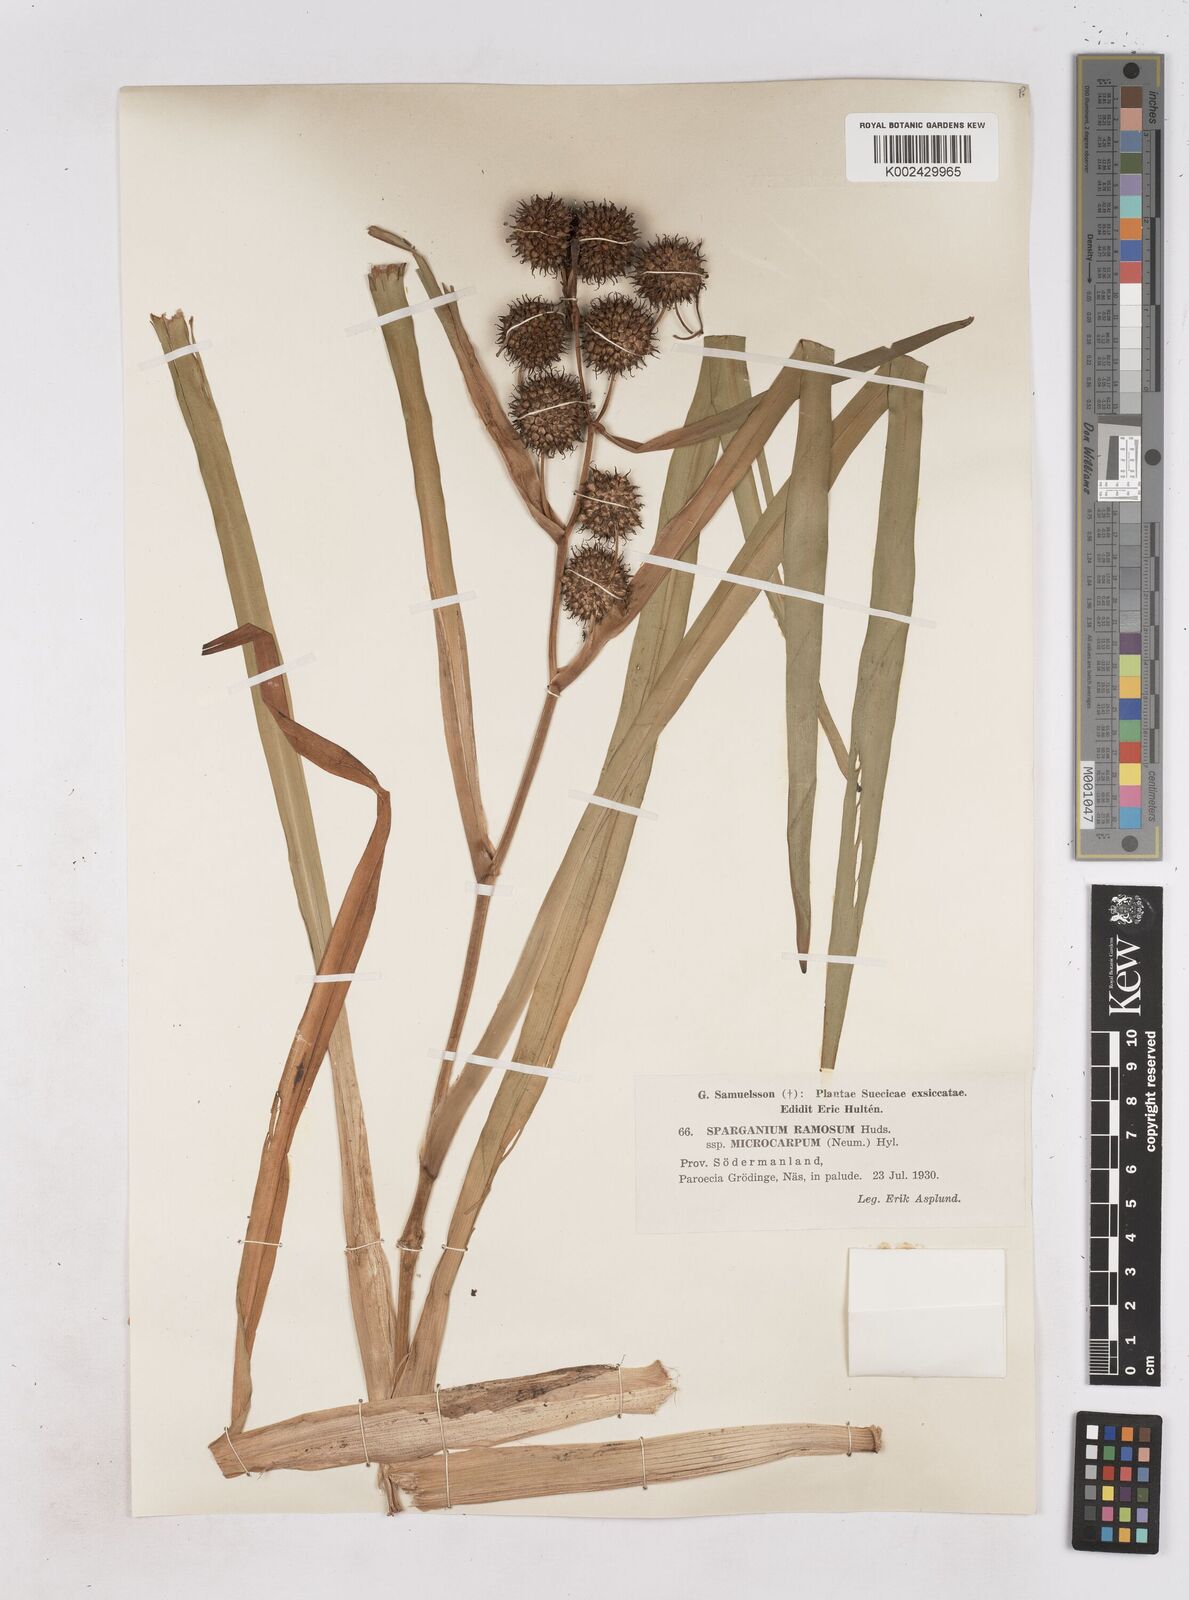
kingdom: Plantae
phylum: Tracheophyta
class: Liliopsida
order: Poales
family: Typhaceae
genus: Sparganium
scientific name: Sparganium erectum
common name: Branched bur-reed
